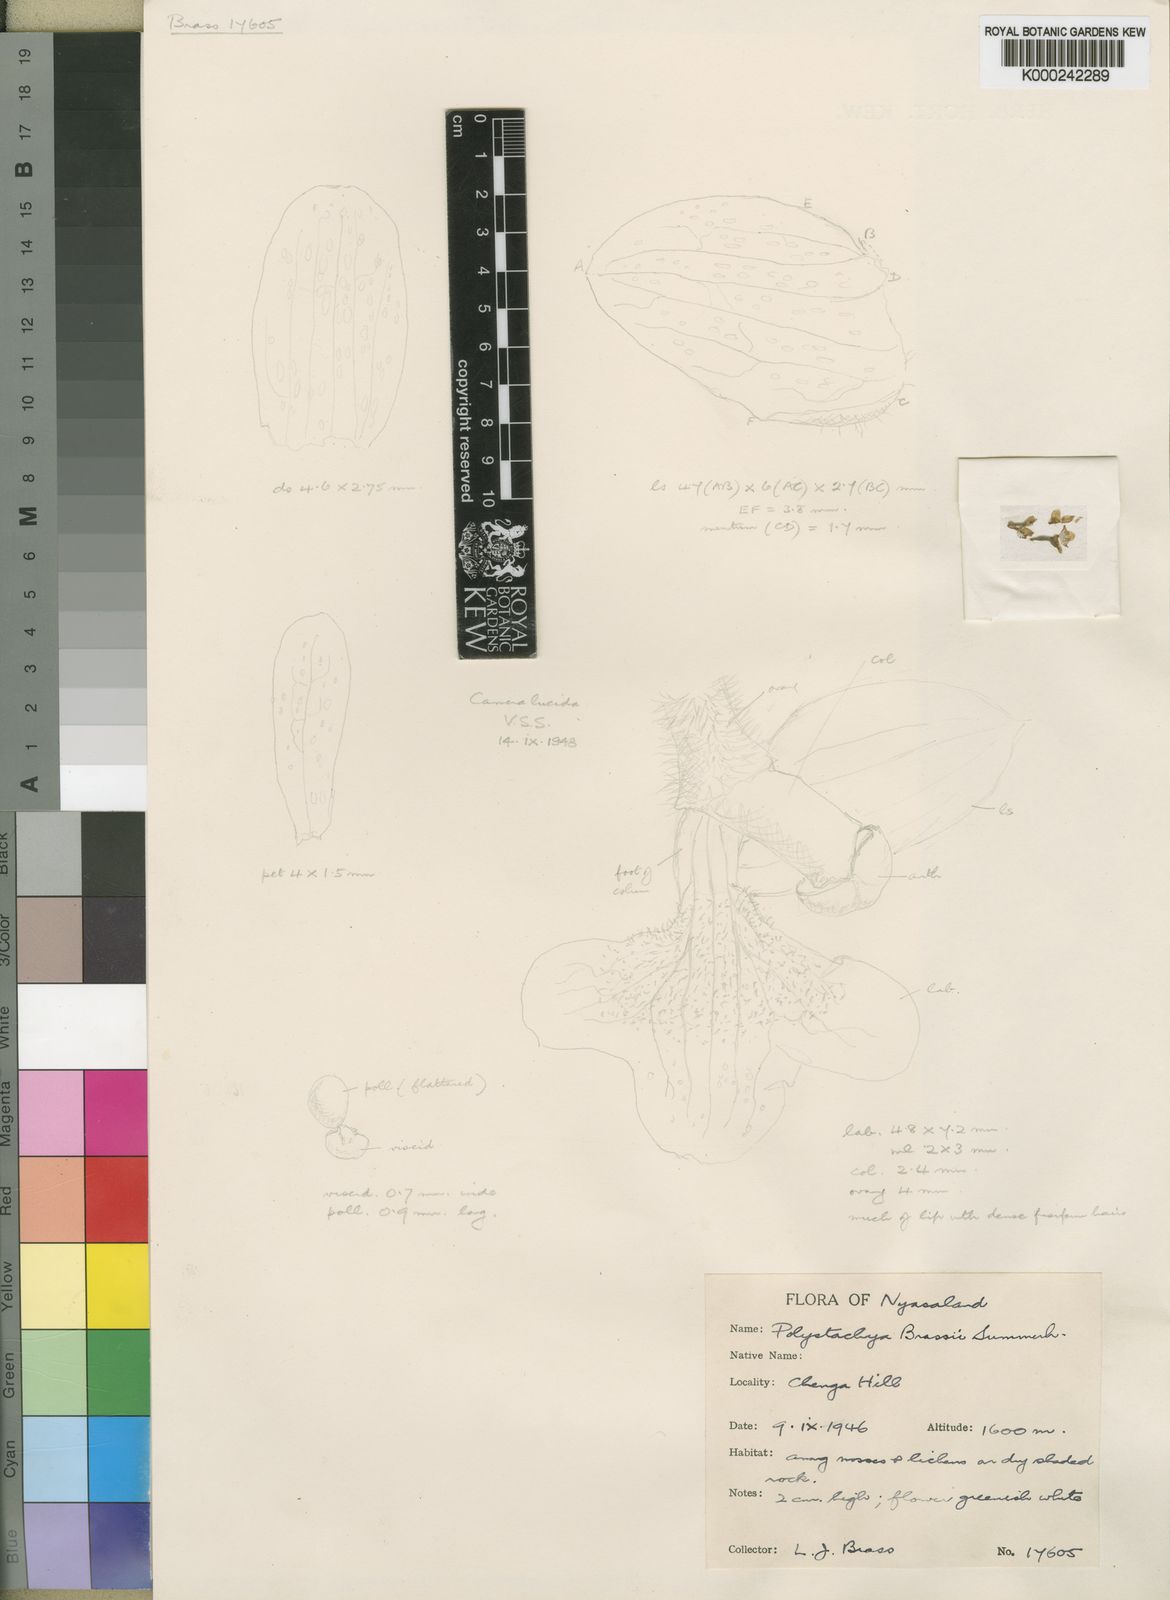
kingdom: Plantae
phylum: Tracheophyta
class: Liliopsida
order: Asparagales
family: Orchidaceae
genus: Polystachya
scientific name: Polystachya brassii
